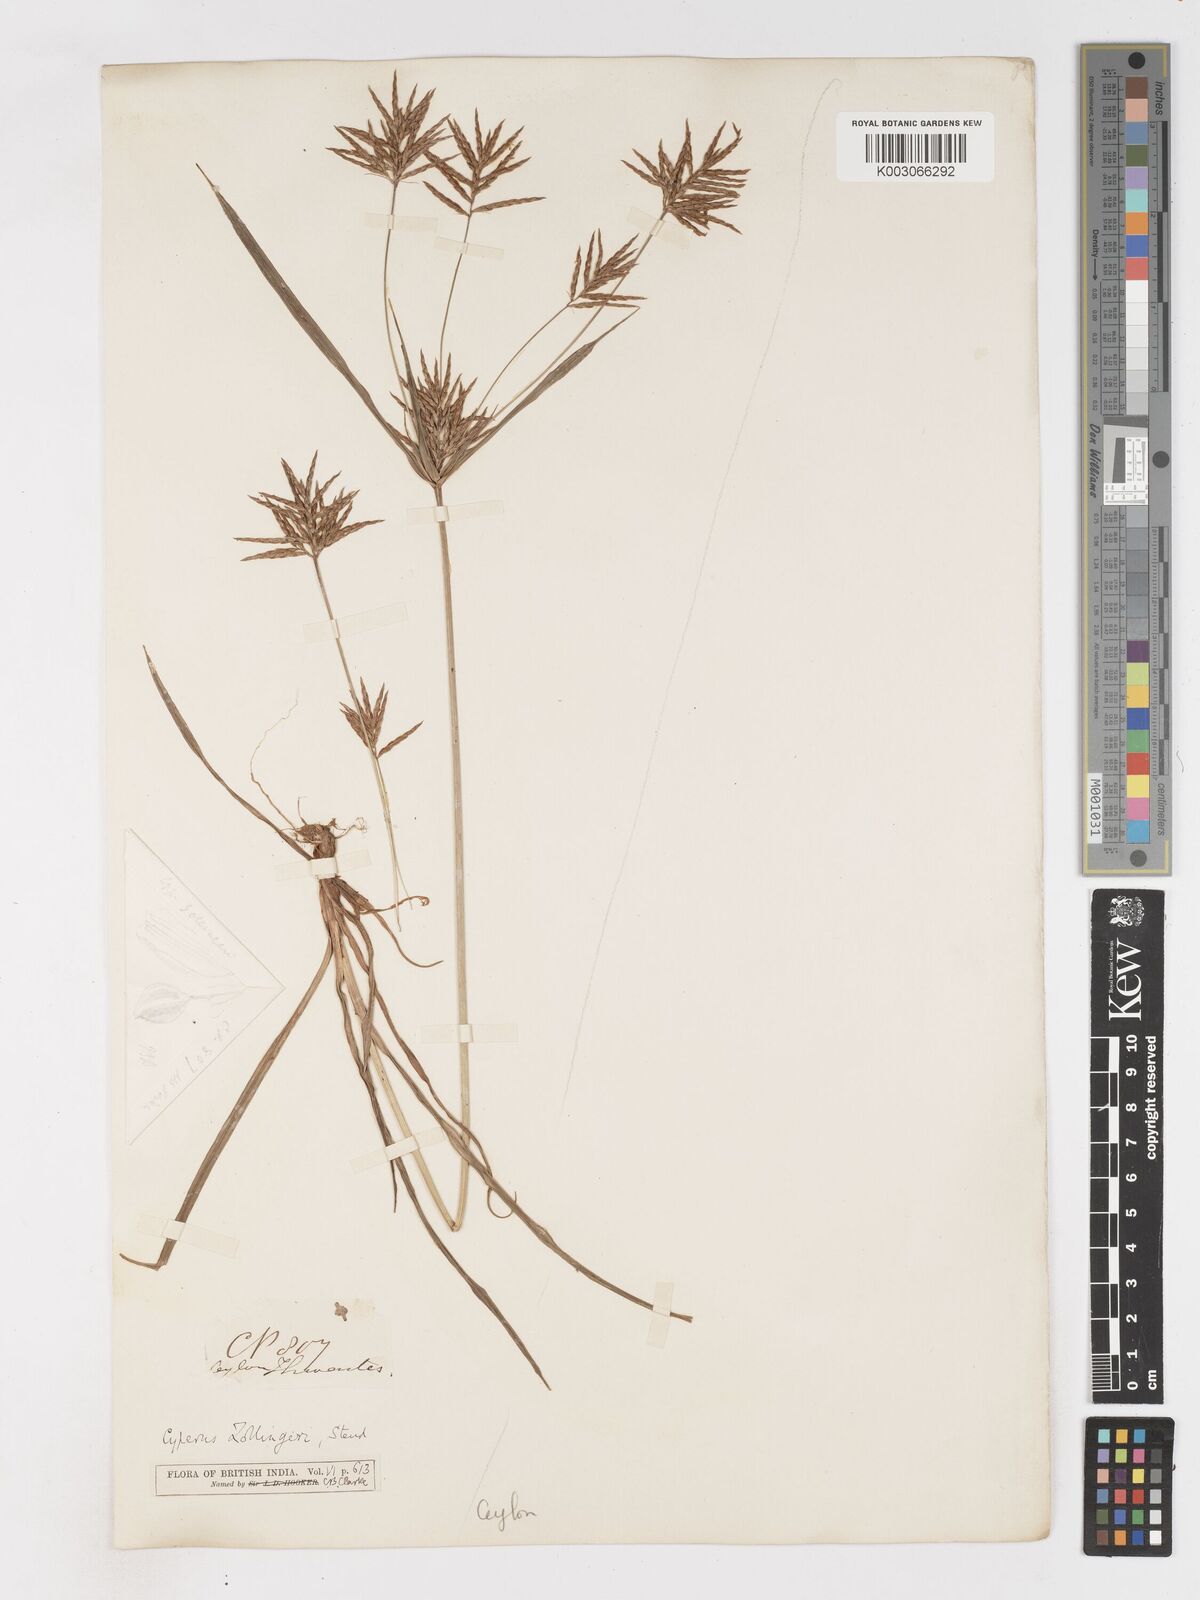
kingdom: Plantae
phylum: Tracheophyta
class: Liliopsida
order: Poales
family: Cyperaceae
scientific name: Cyperaceae
